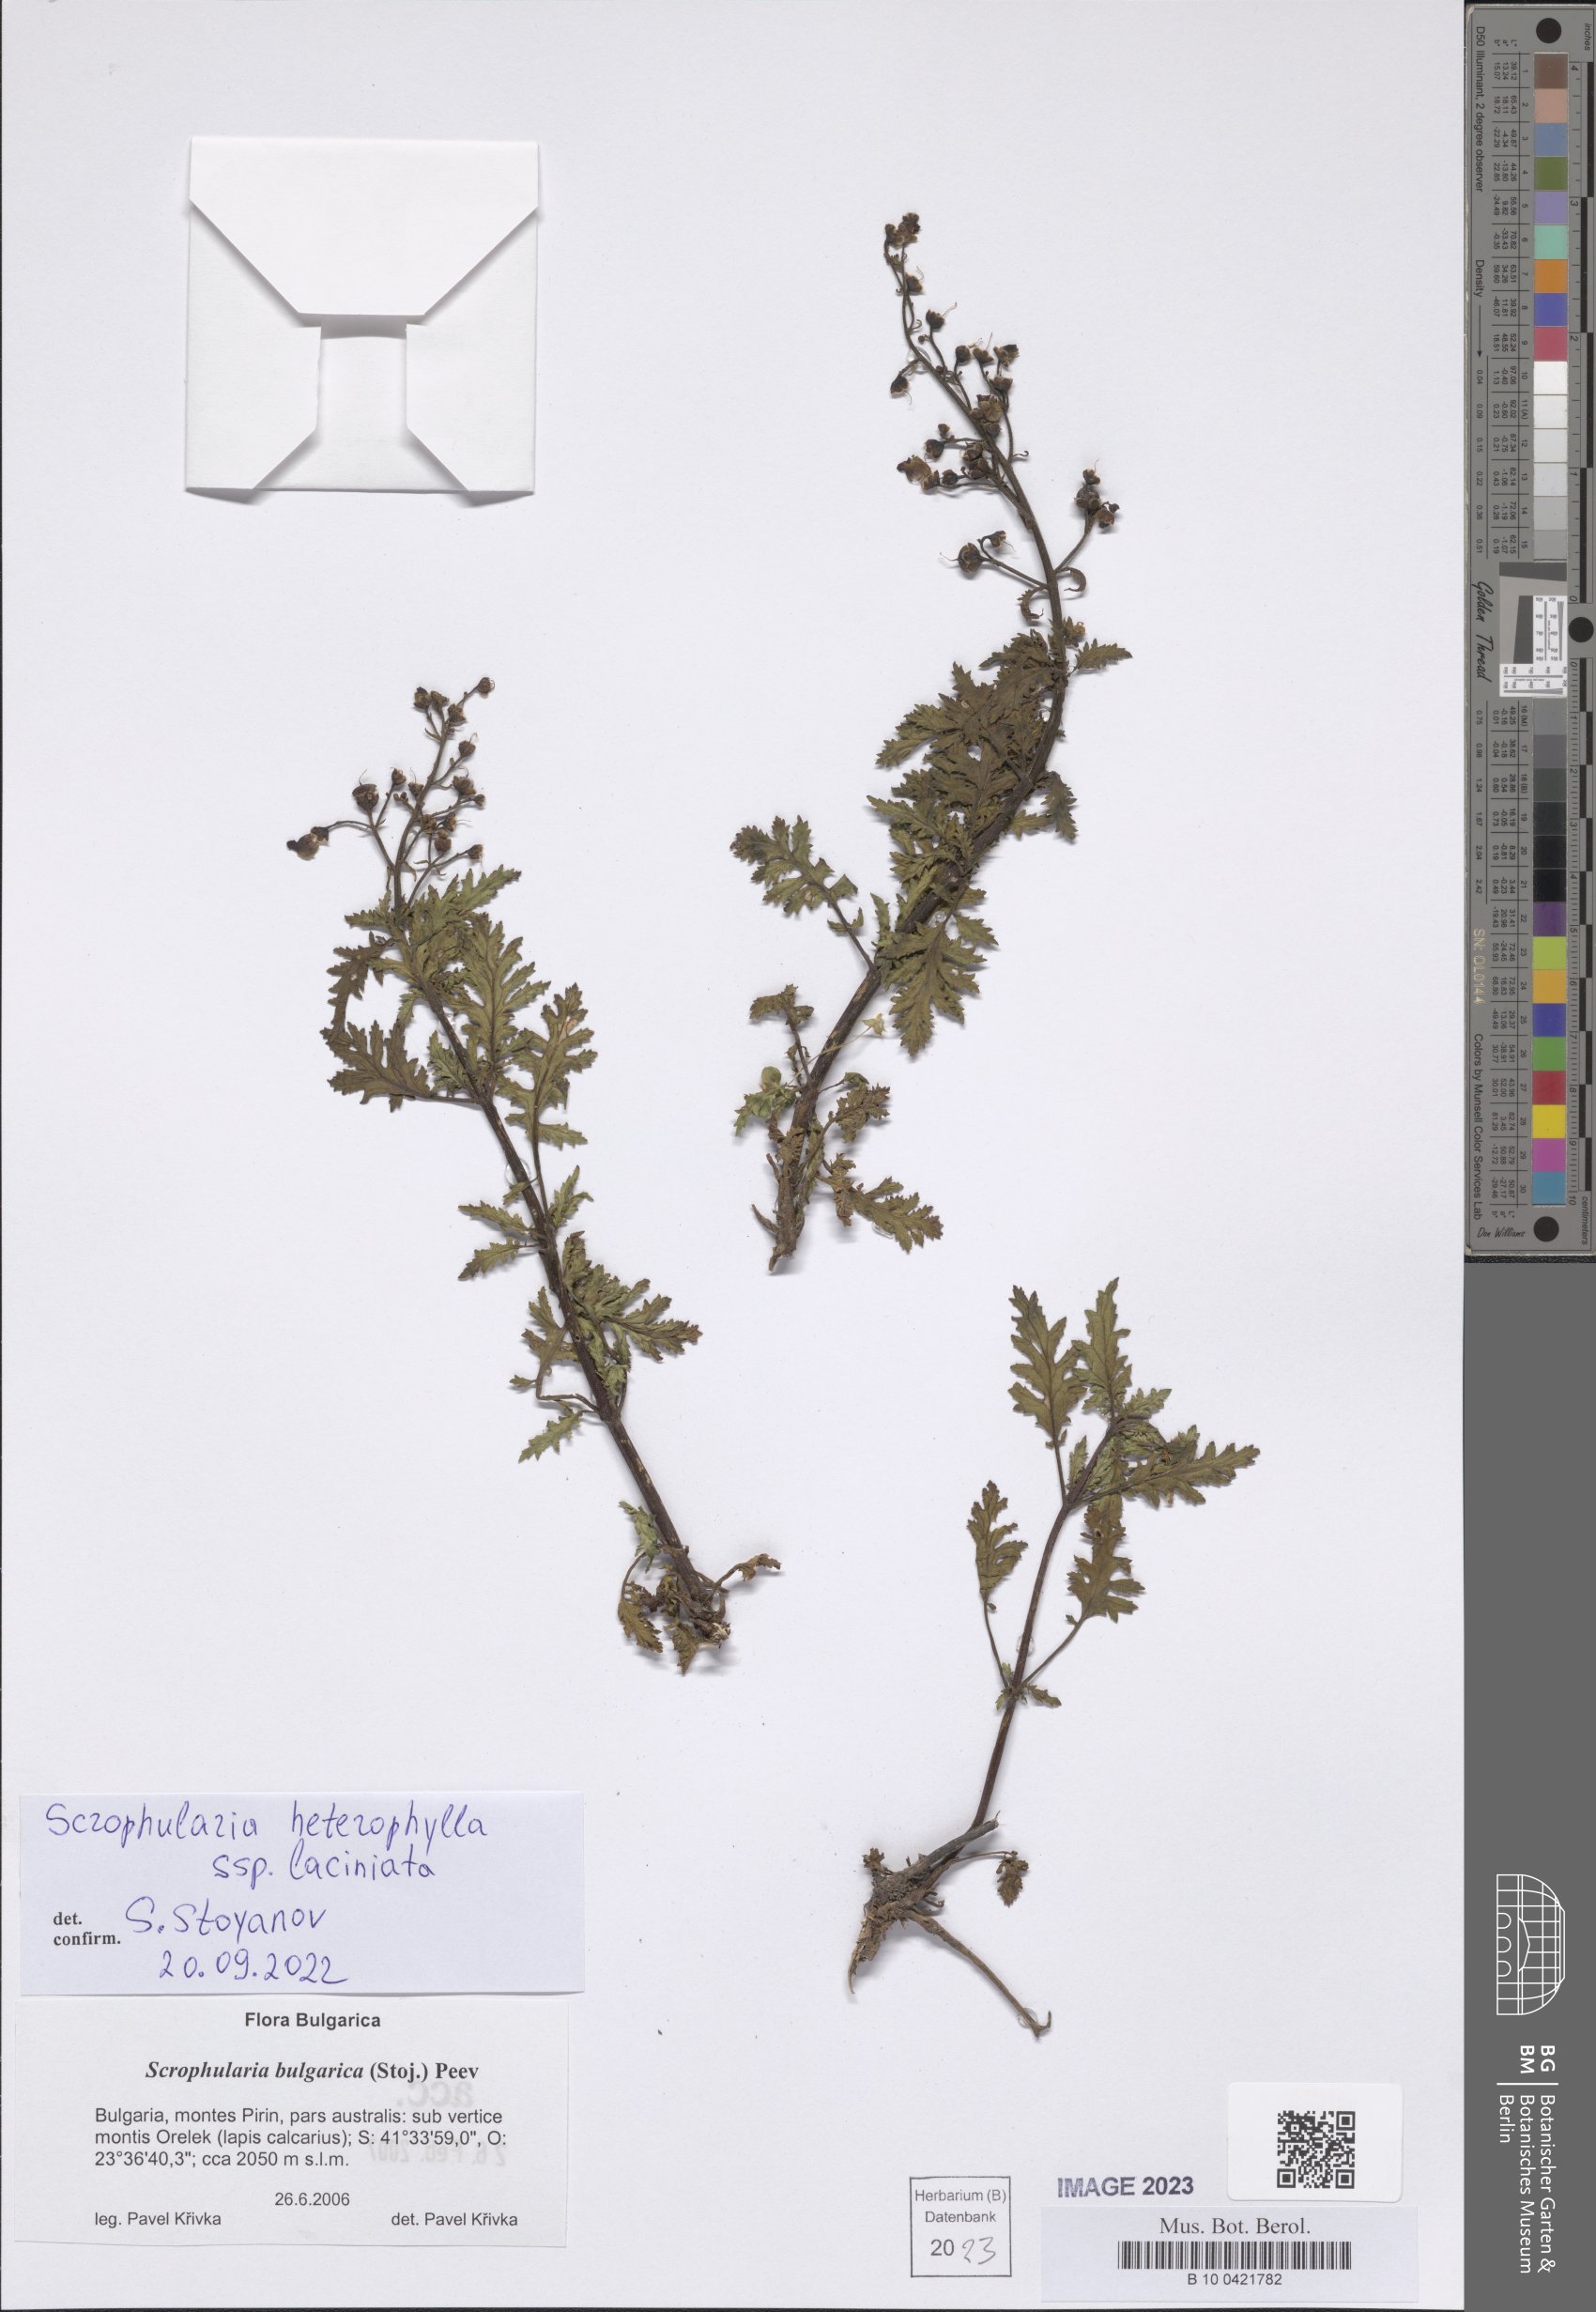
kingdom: Plantae
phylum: Tracheophyta
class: Magnoliopsida
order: Lamiales
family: Scrophulariaceae
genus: Scrophularia
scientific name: Scrophularia laciniata
